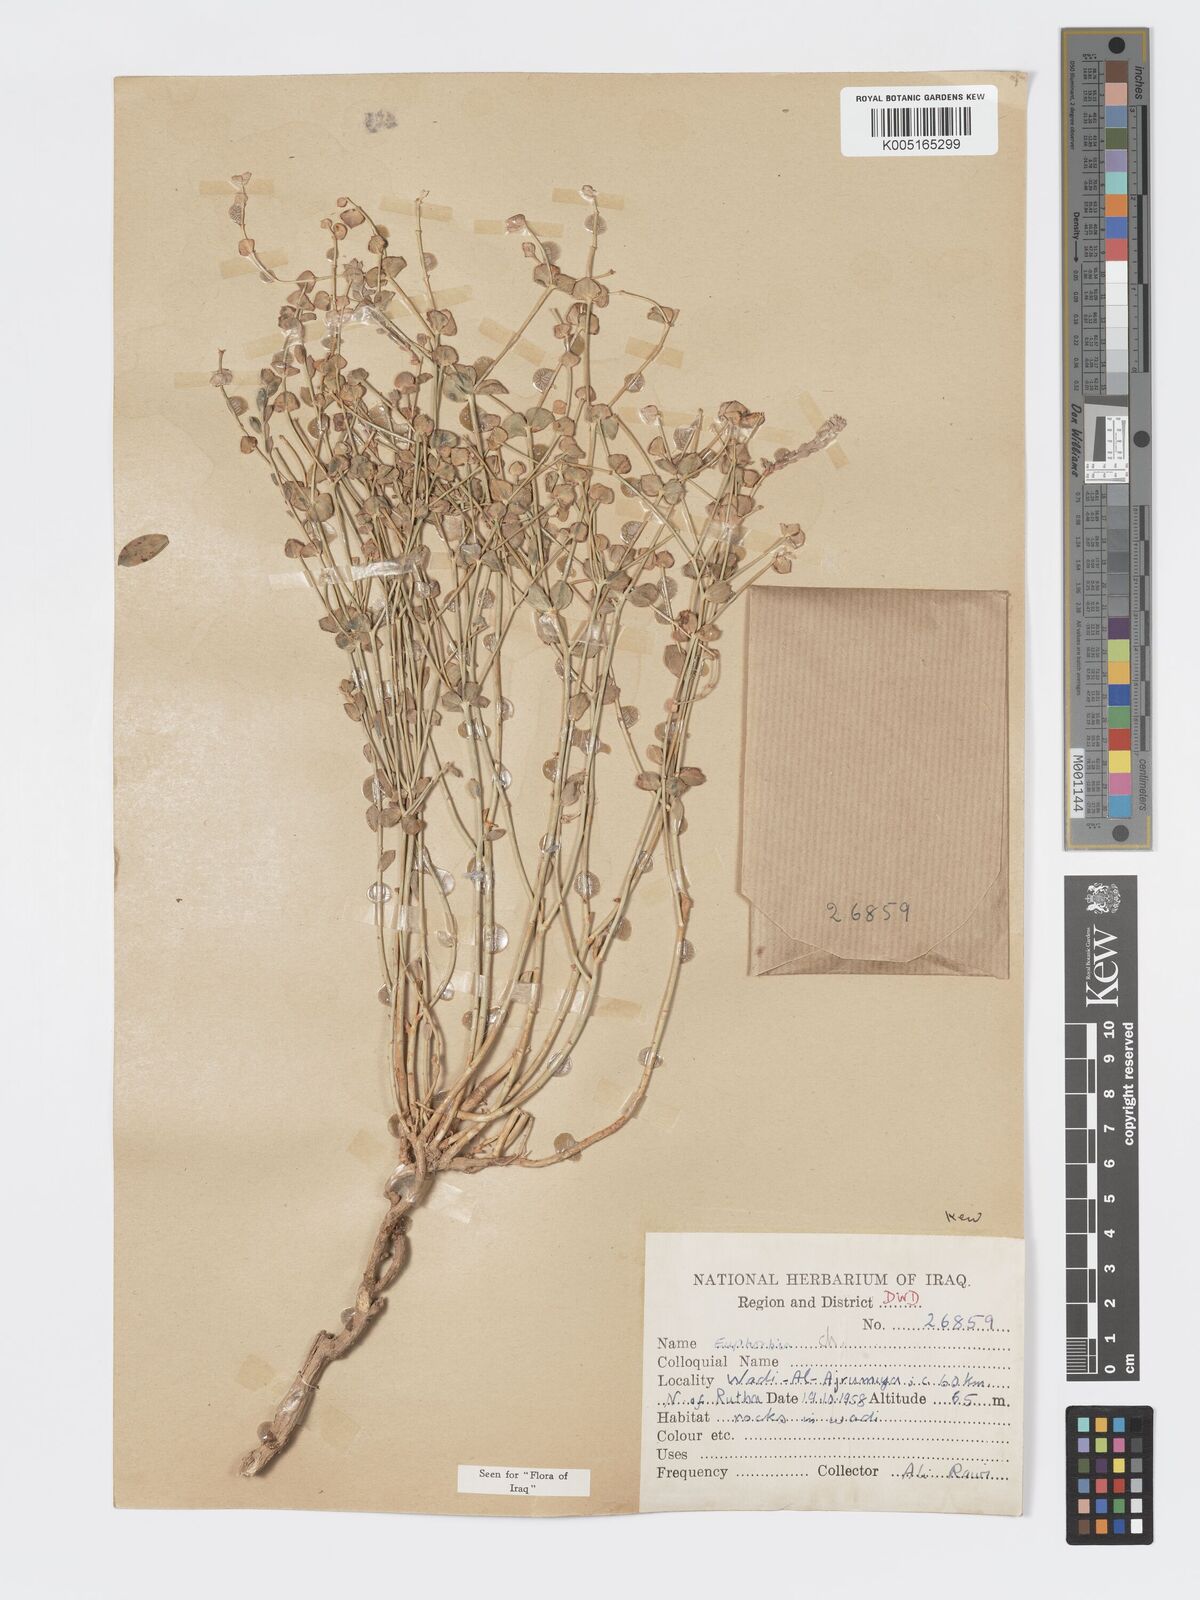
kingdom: Plantae
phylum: Tracheophyta
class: Magnoliopsida
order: Malpighiales
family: Euphorbiaceae
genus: Euphorbia
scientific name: Euphorbia
